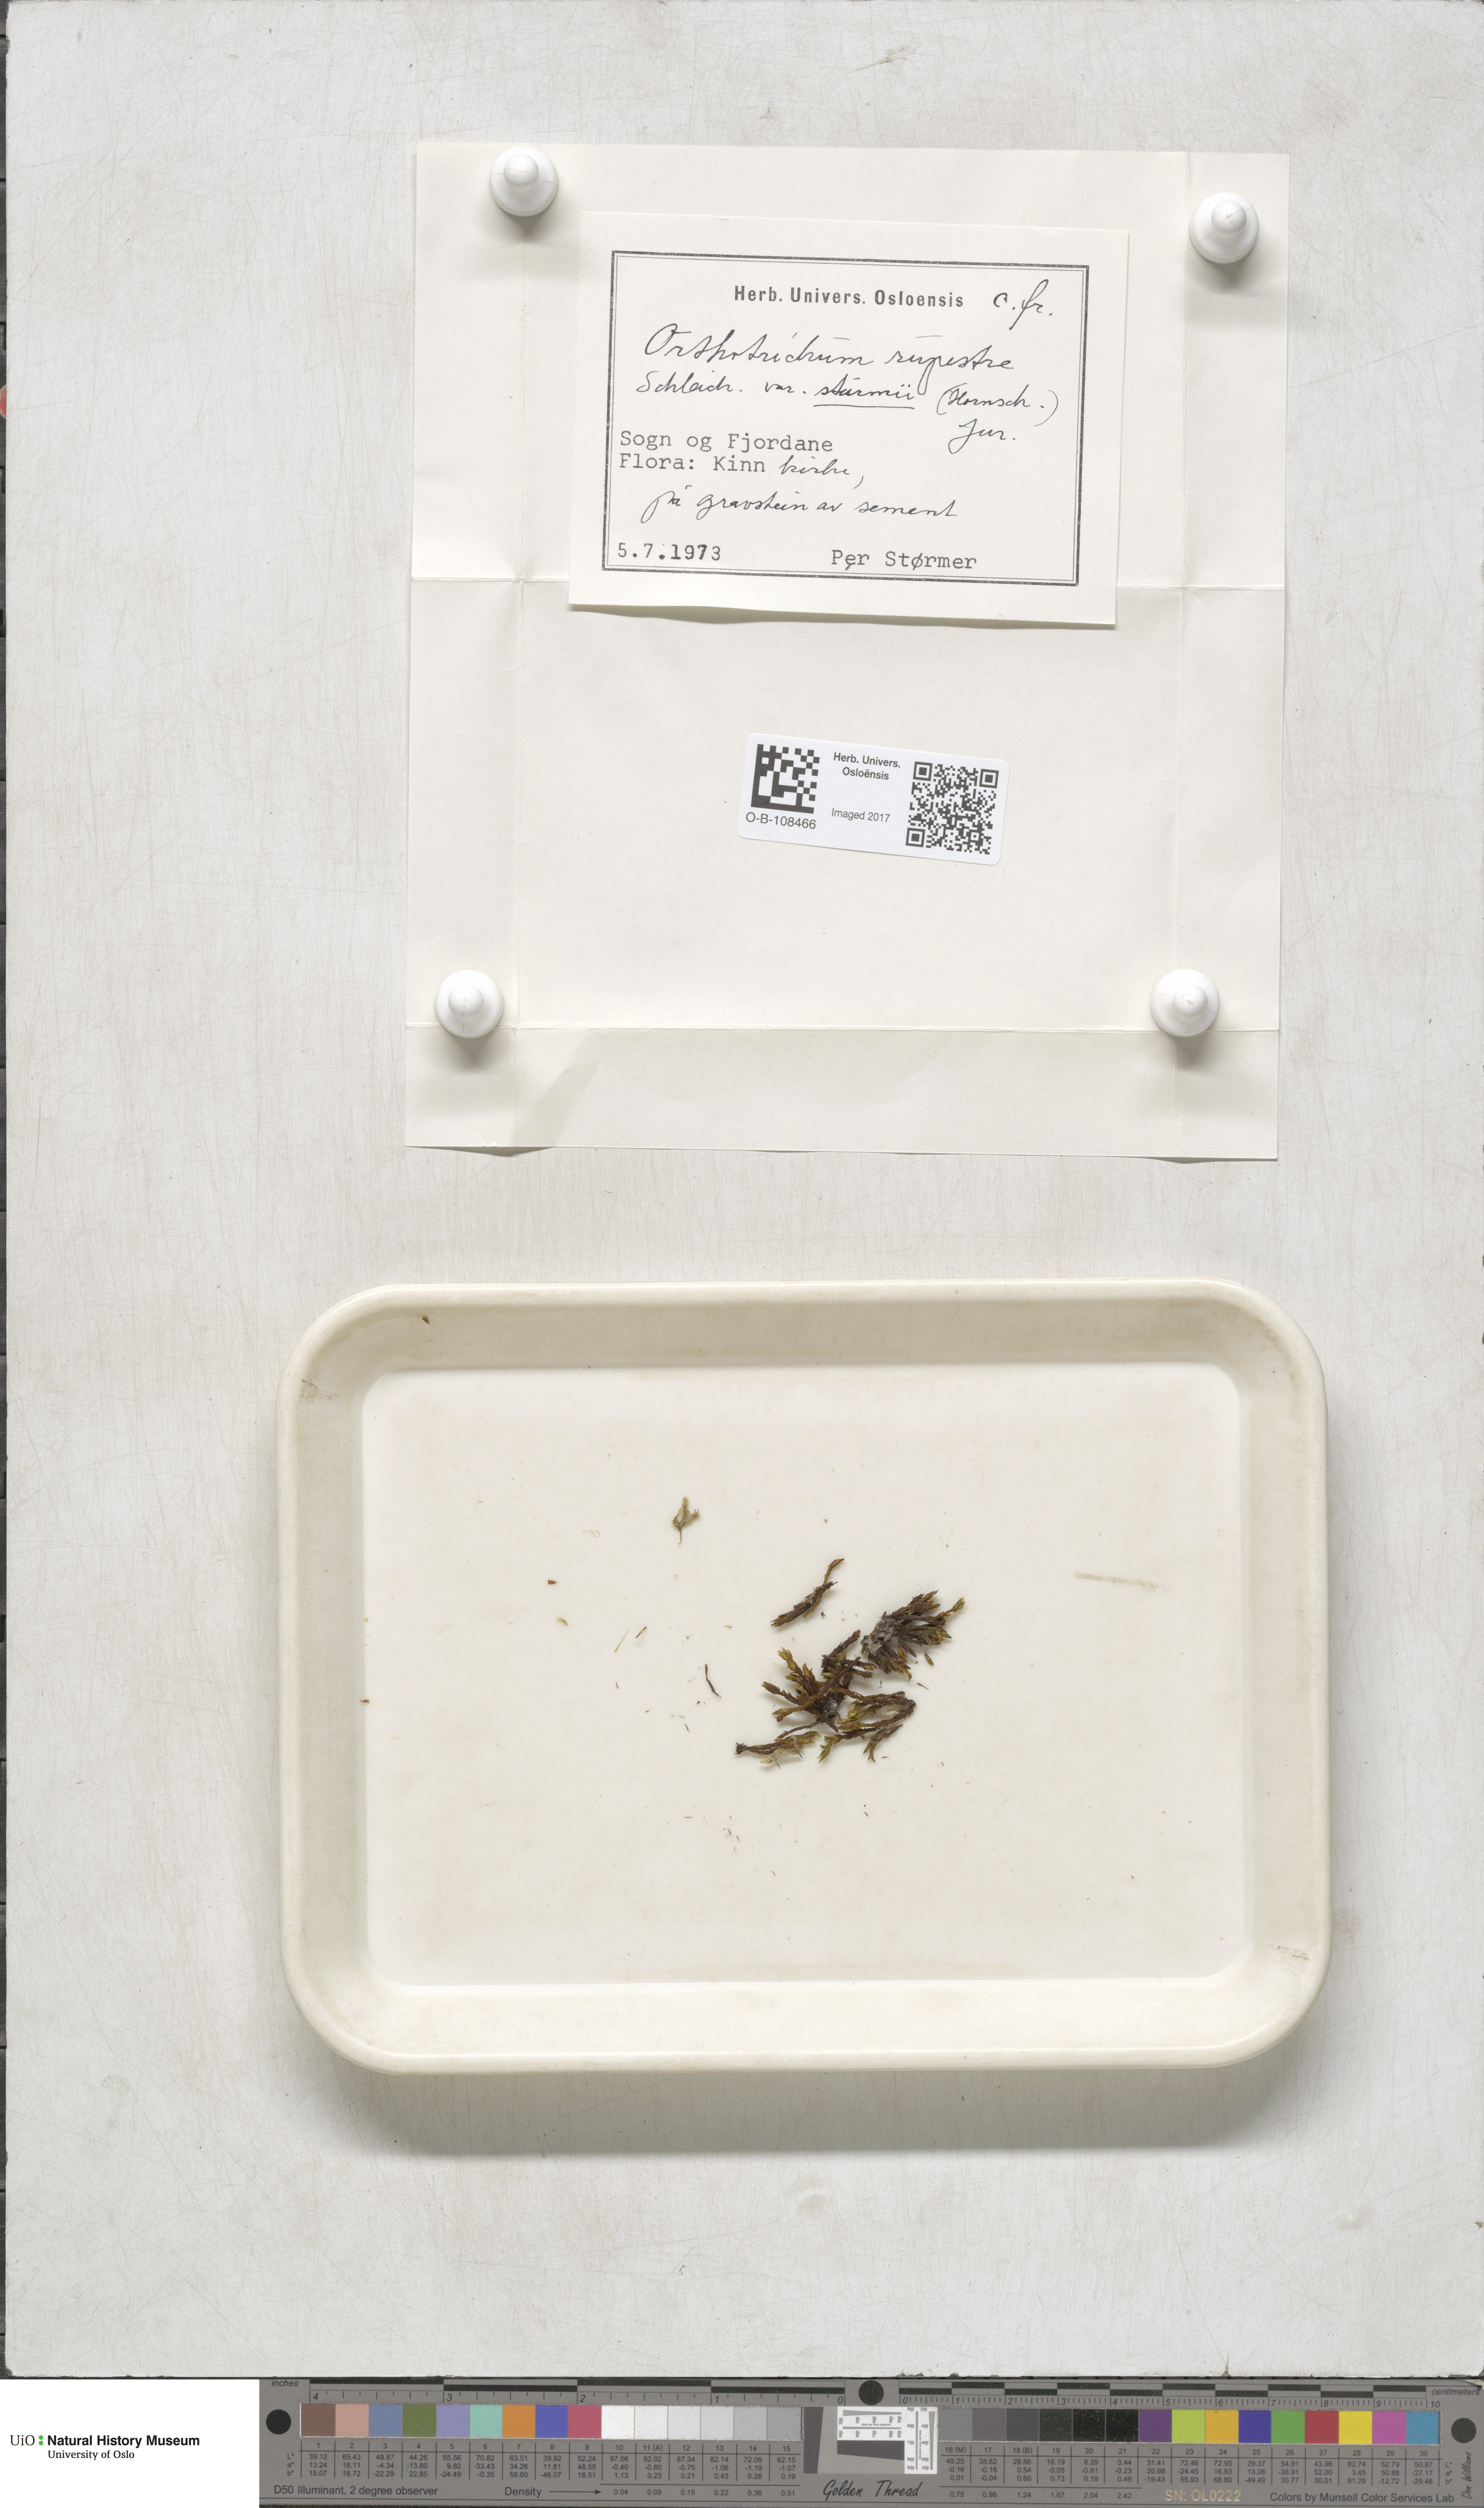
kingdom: Plantae
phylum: Bryophyta
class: Bryopsida
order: Orthotrichales
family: Orthotrichaceae
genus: Lewinskya
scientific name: Lewinskya rupestris
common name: Rock bristle-moss
